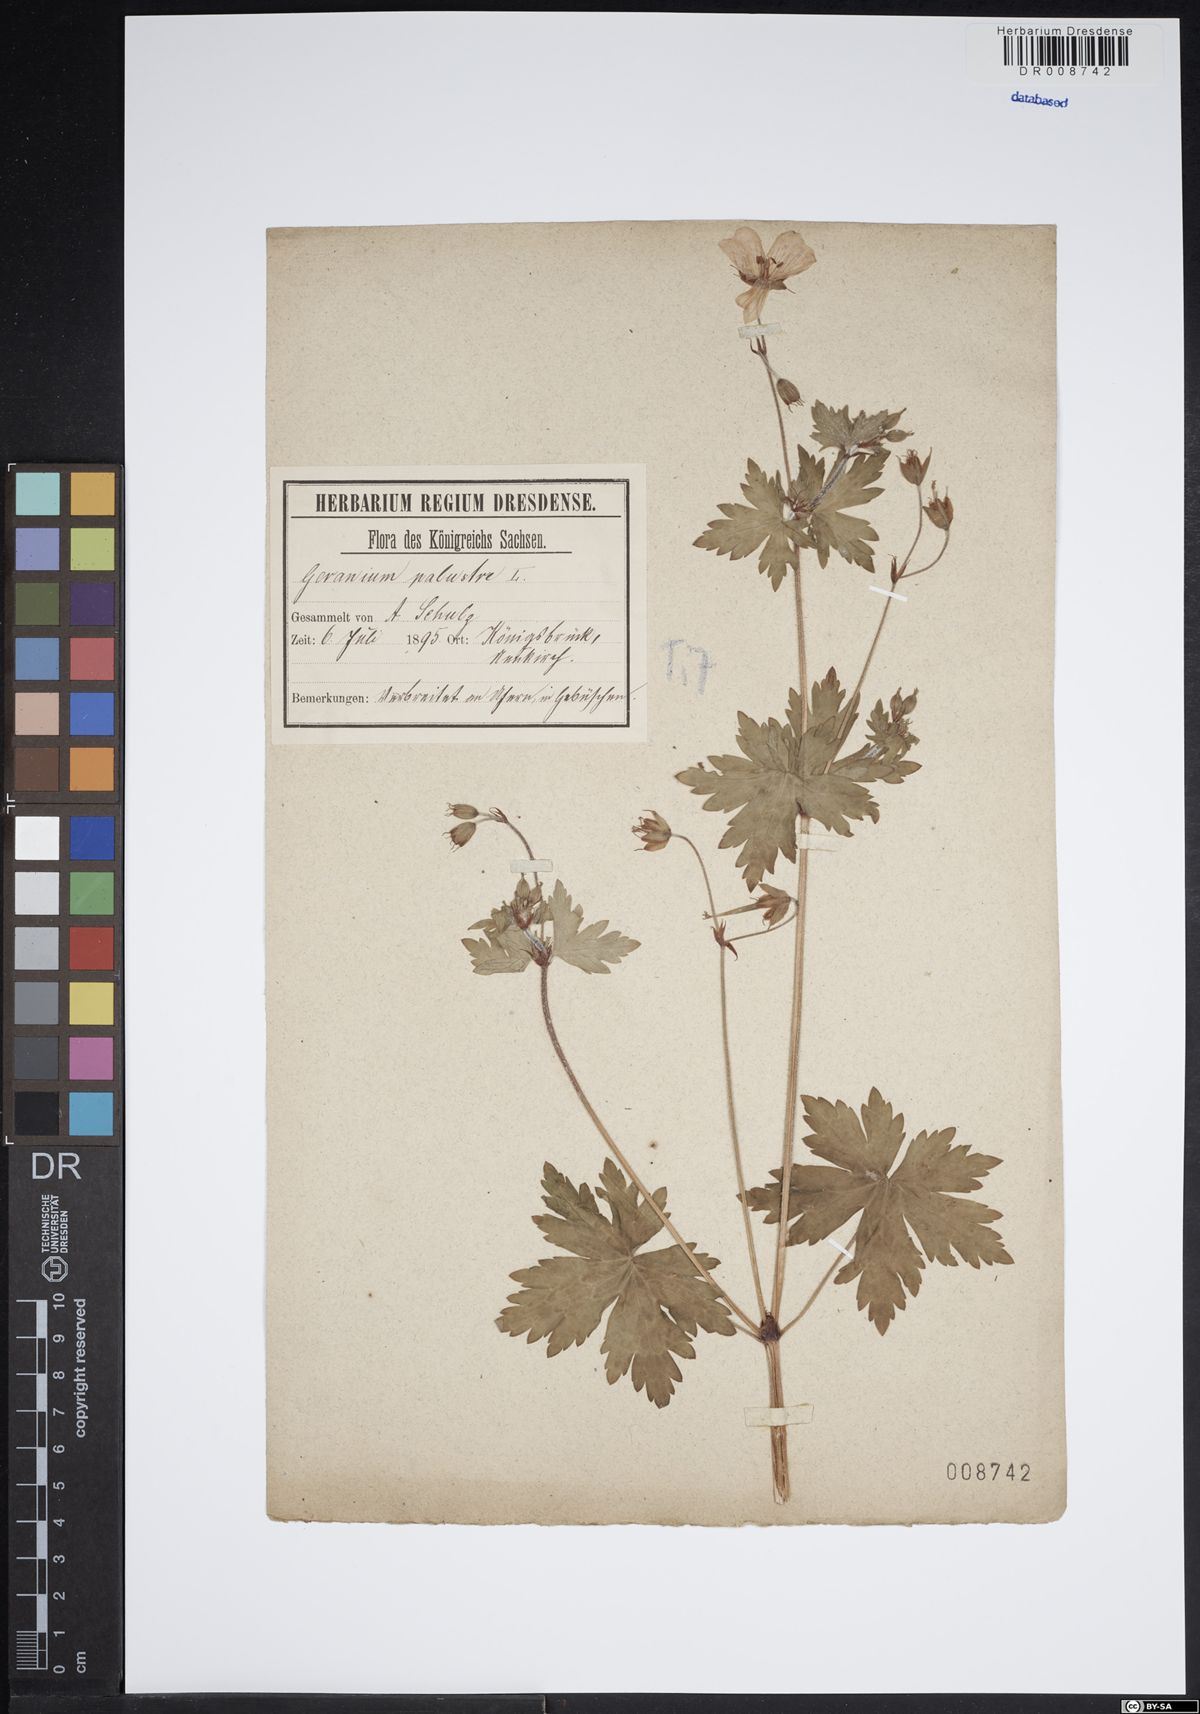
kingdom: Plantae
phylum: Tracheophyta
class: Magnoliopsida
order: Geraniales
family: Geraniaceae
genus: Geranium
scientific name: Geranium palustre
